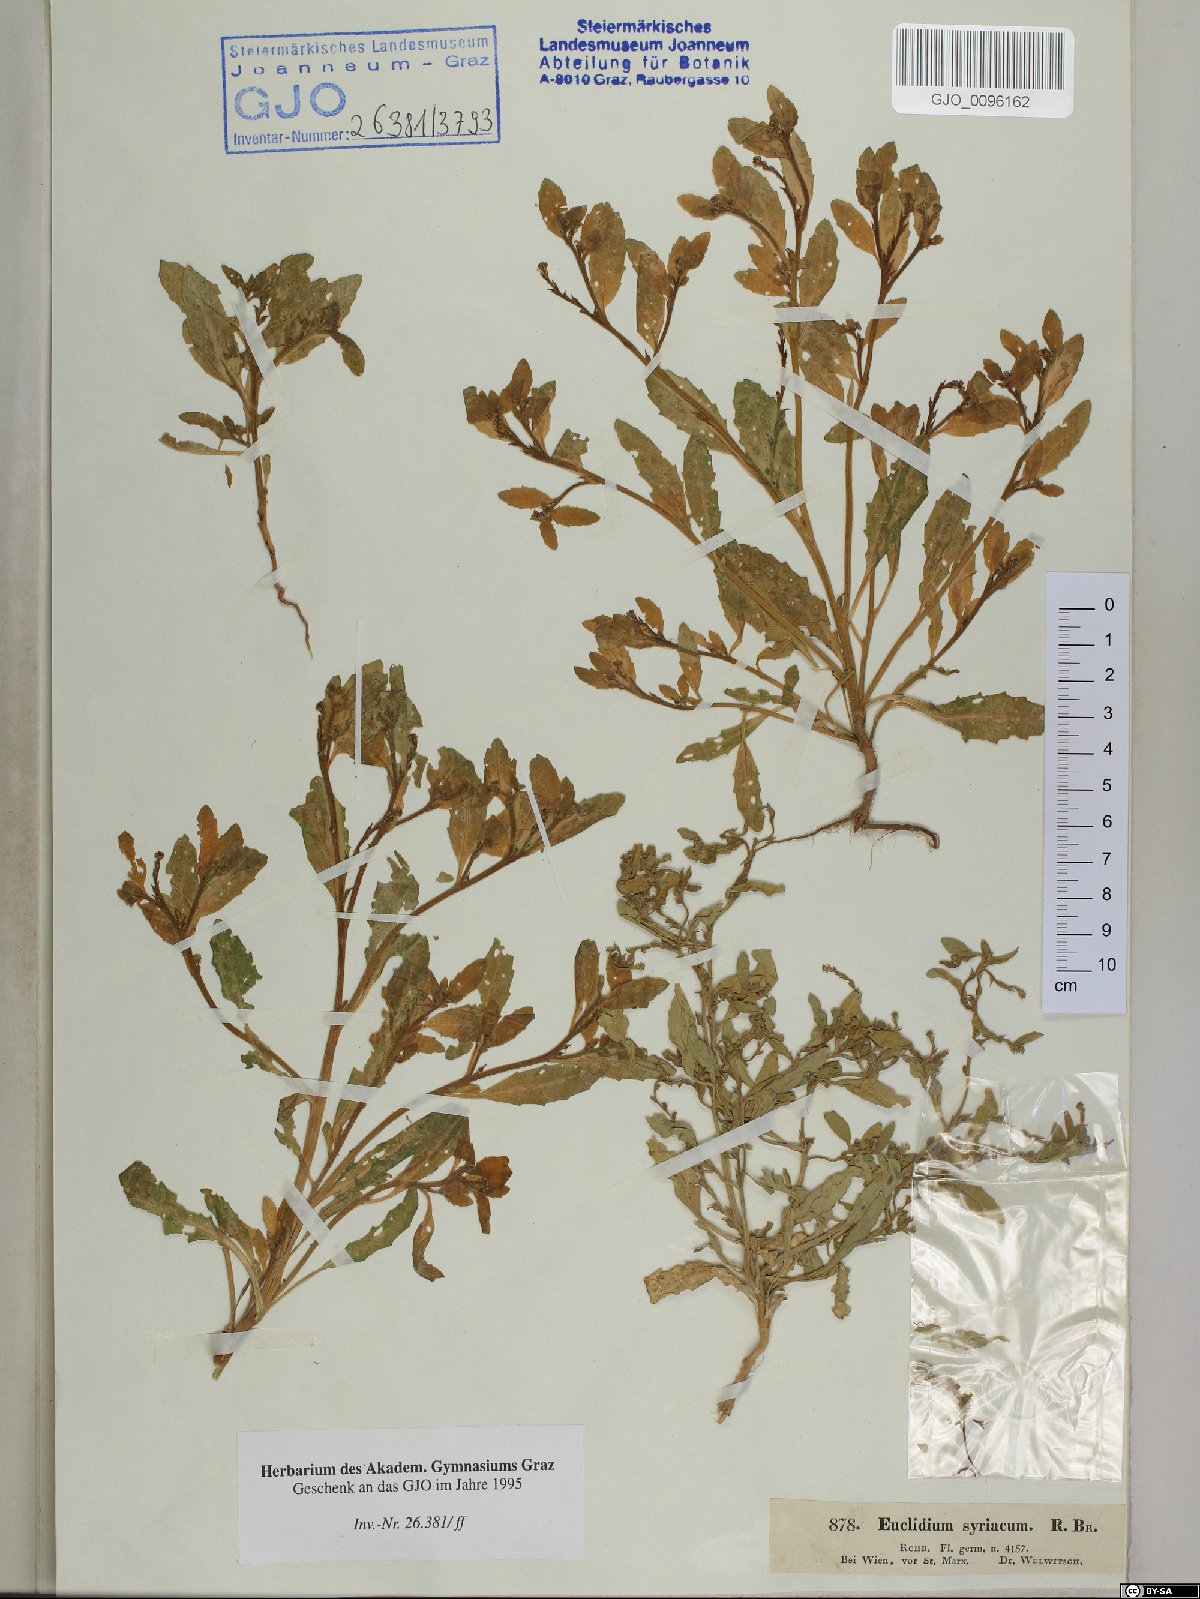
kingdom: Plantae
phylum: Tracheophyta
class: Magnoliopsida
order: Brassicales
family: Brassicaceae
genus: Euclidium
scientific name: Euclidium syriacum
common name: Syrian mustard
